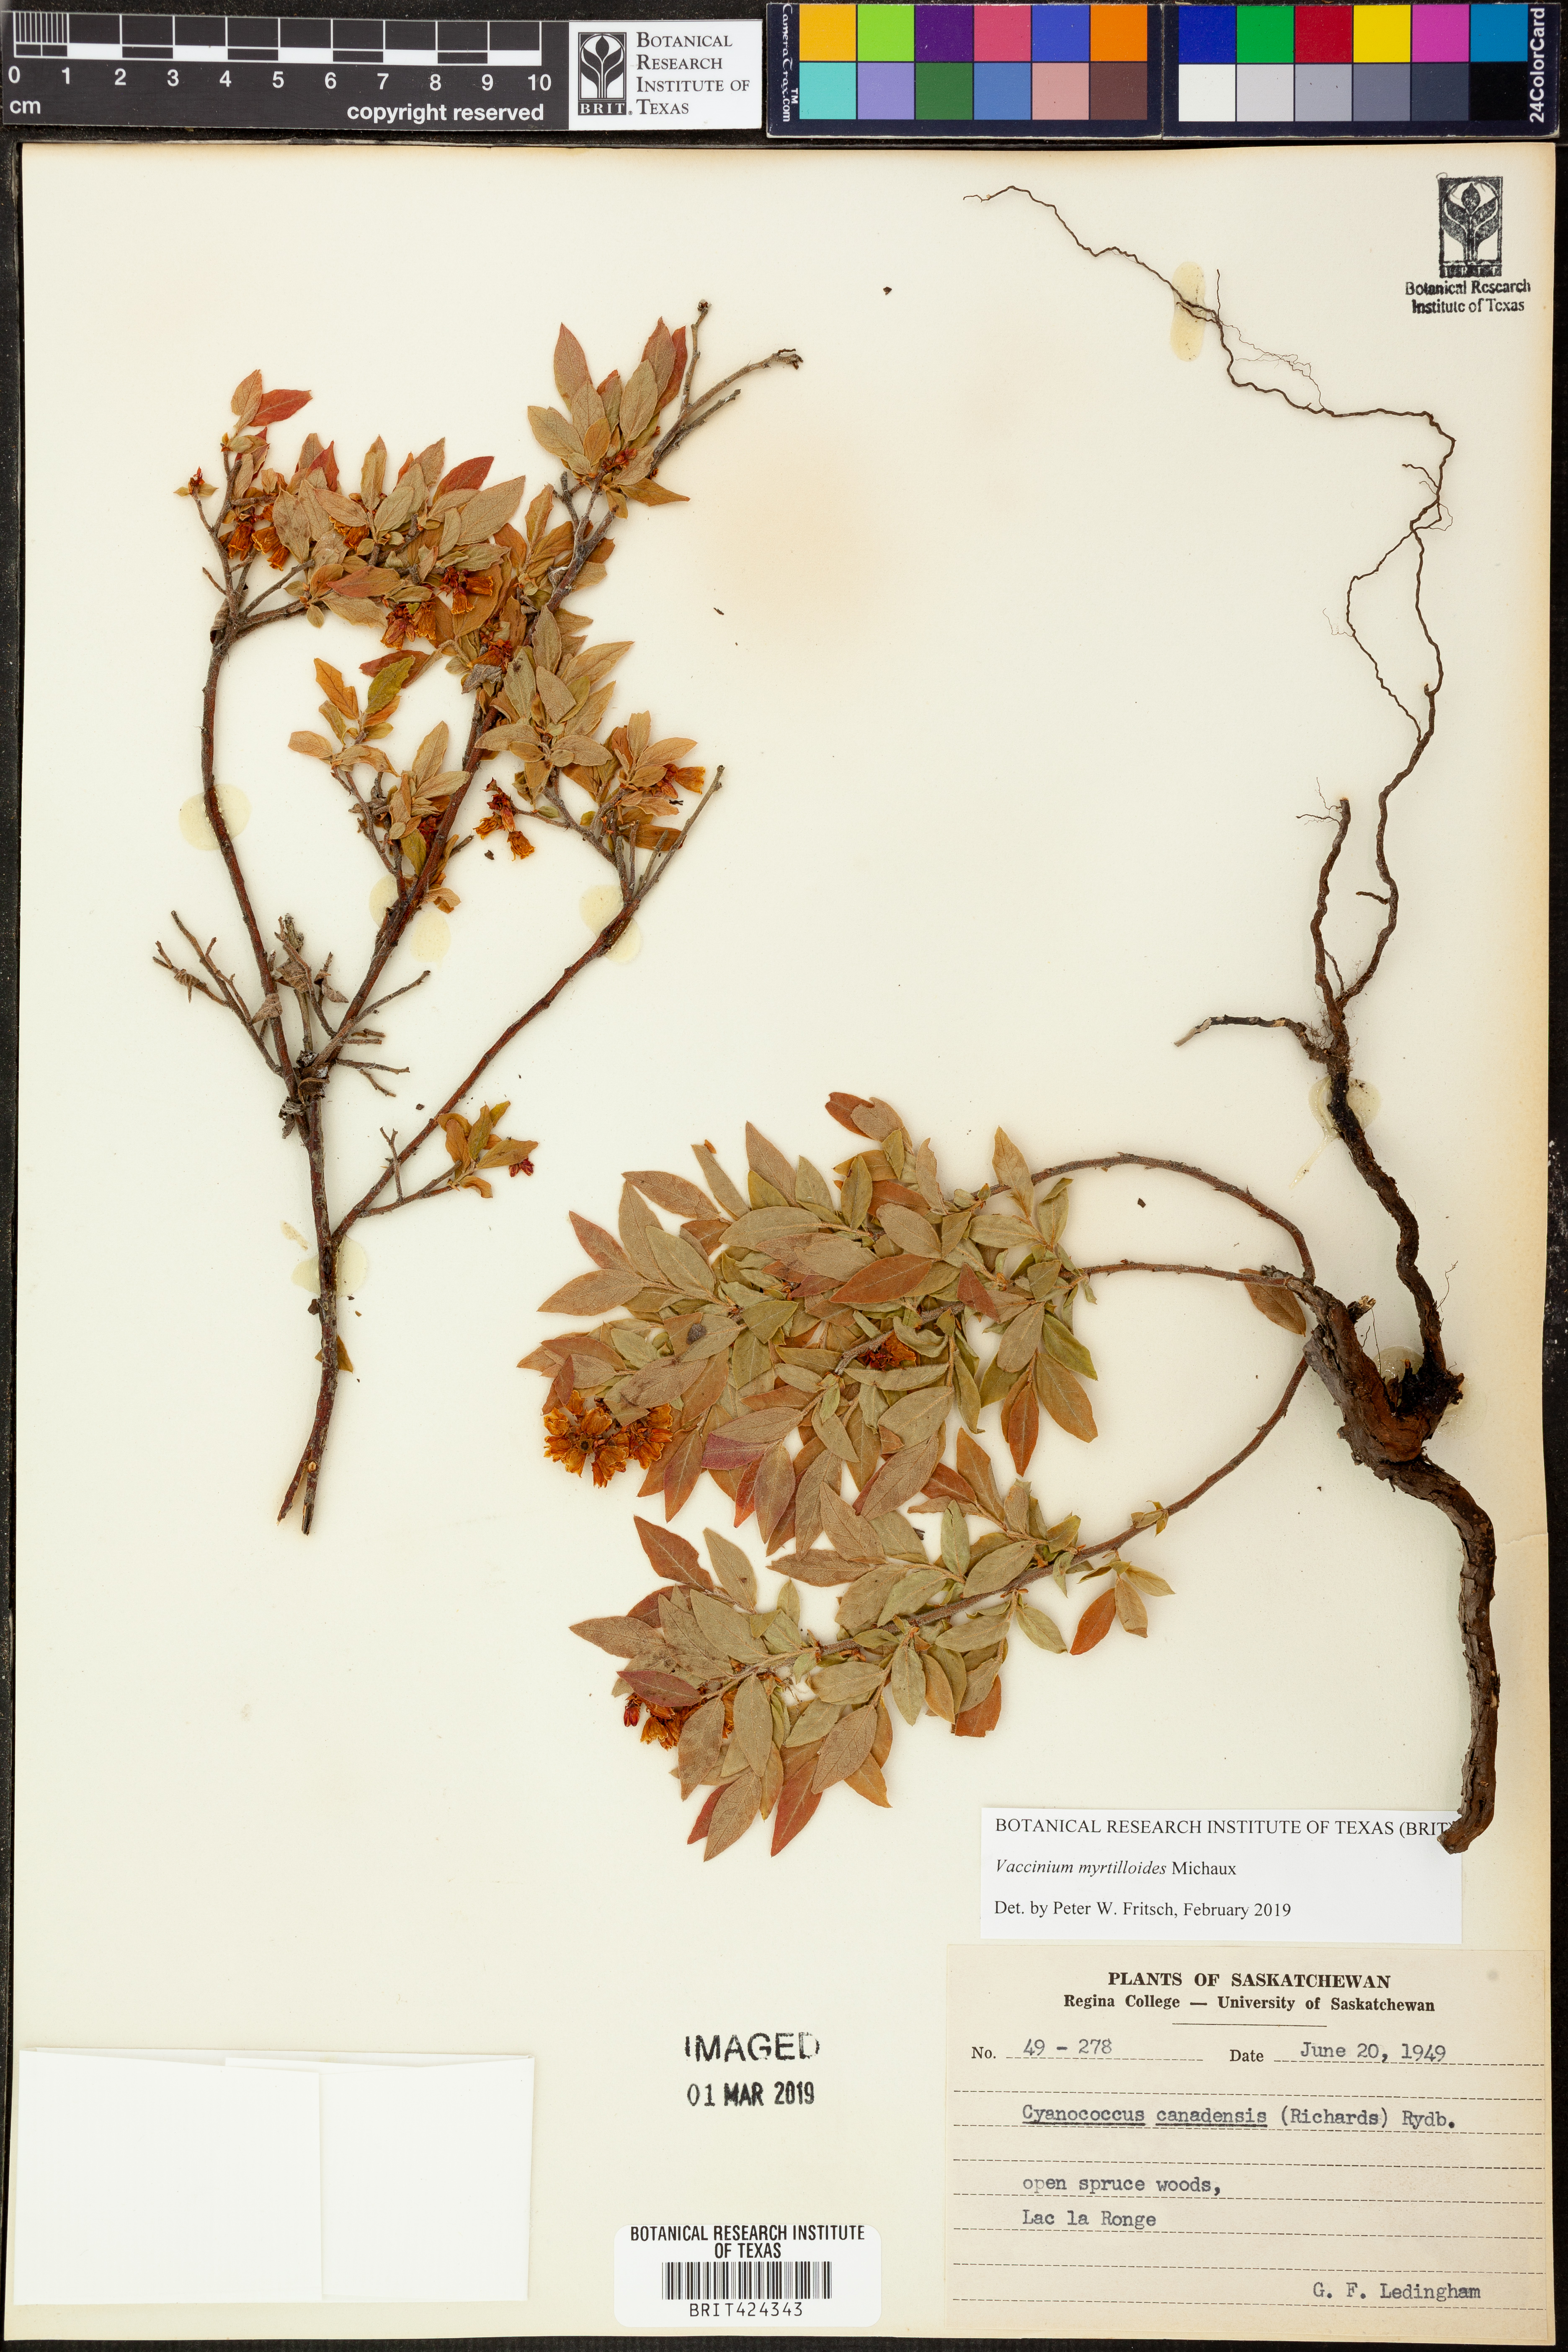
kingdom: Plantae
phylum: Tracheophyta
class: Magnoliopsida
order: Ericales
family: Ericaceae
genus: Vaccinium
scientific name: Vaccinium myrtilloides
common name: Canada blueberry
